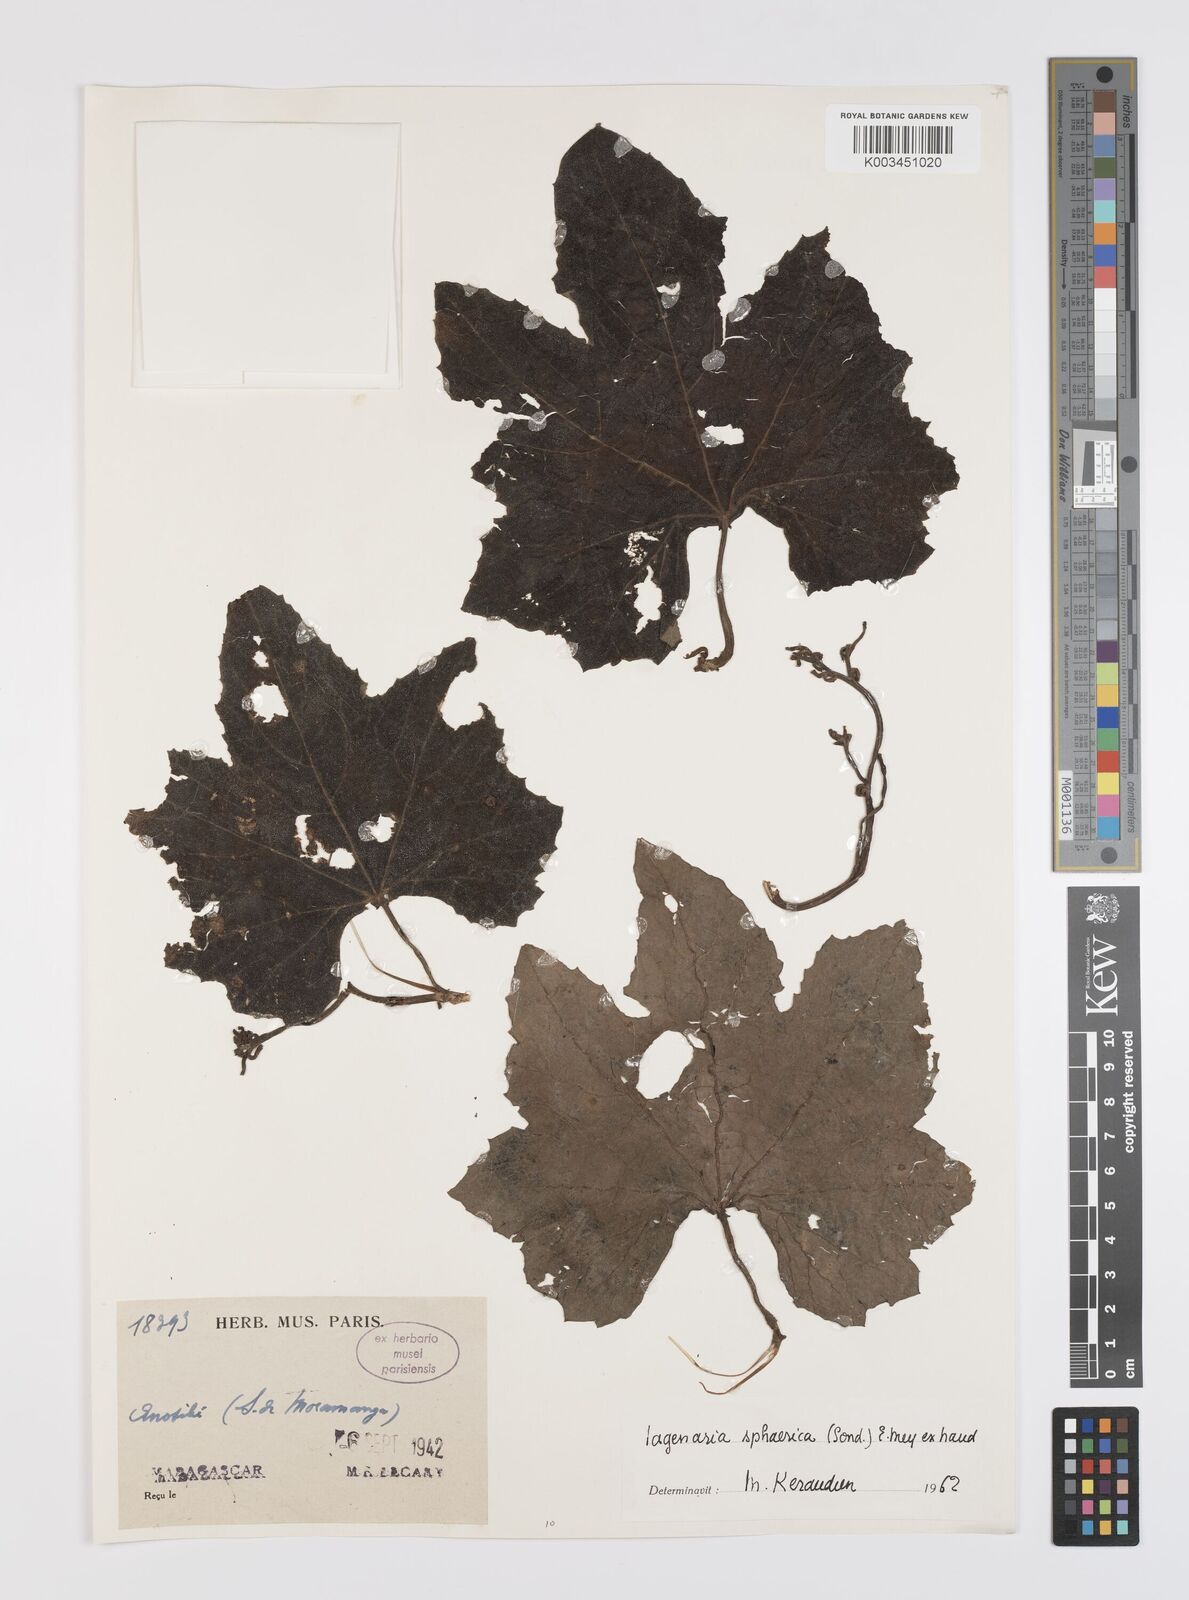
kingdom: Plantae
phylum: Tracheophyta
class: Magnoliopsida
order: Cucurbitales
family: Cucurbitaceae
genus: Lagenaria
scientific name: Lagenaria sphaerica
